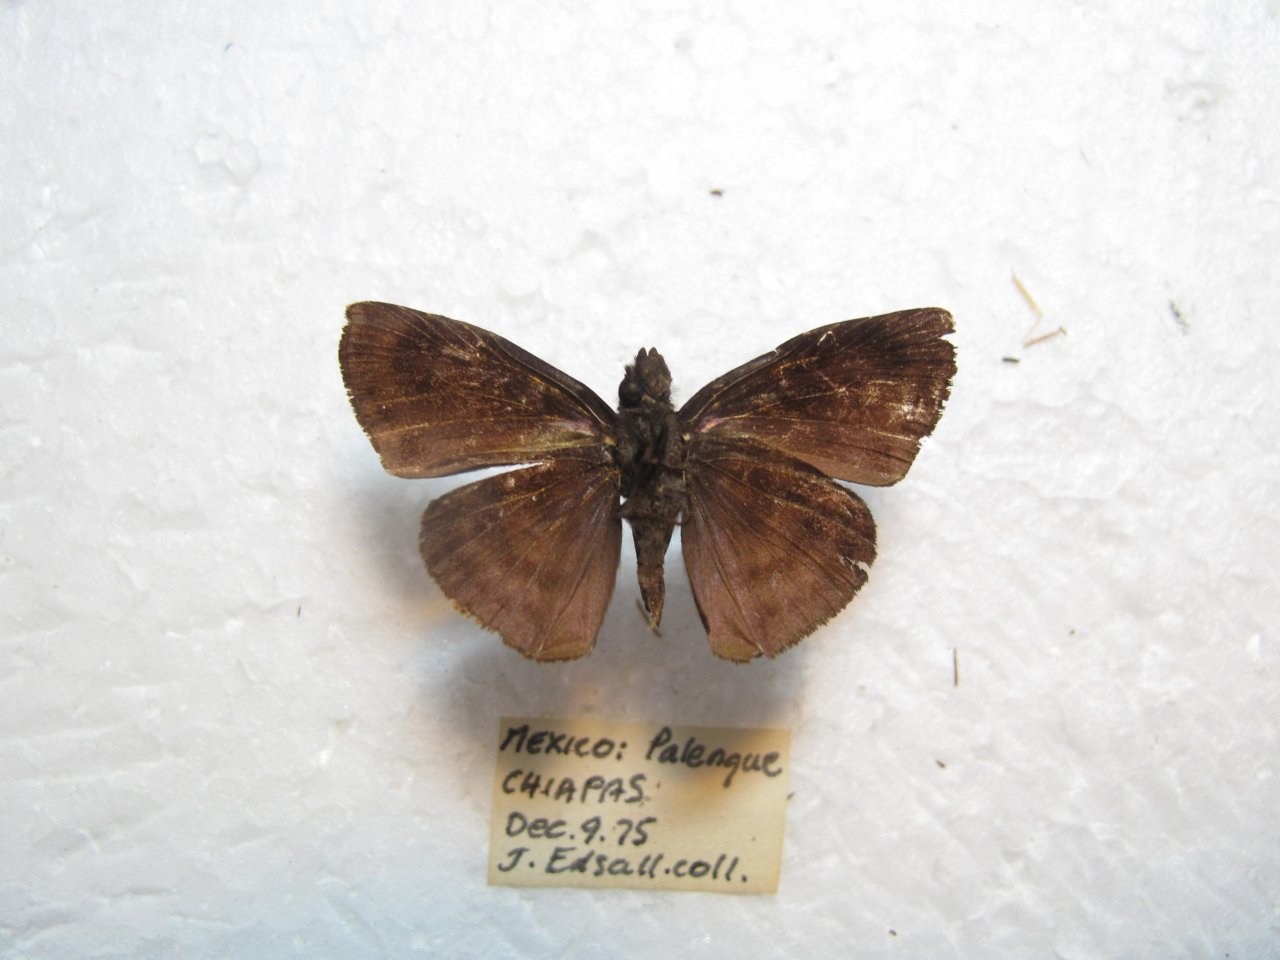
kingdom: Animalia
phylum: Arthropoda
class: Insecta
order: Lepidoptera
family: Hesperiidae
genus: Ebrietas
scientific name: Ebrietas evanidus
